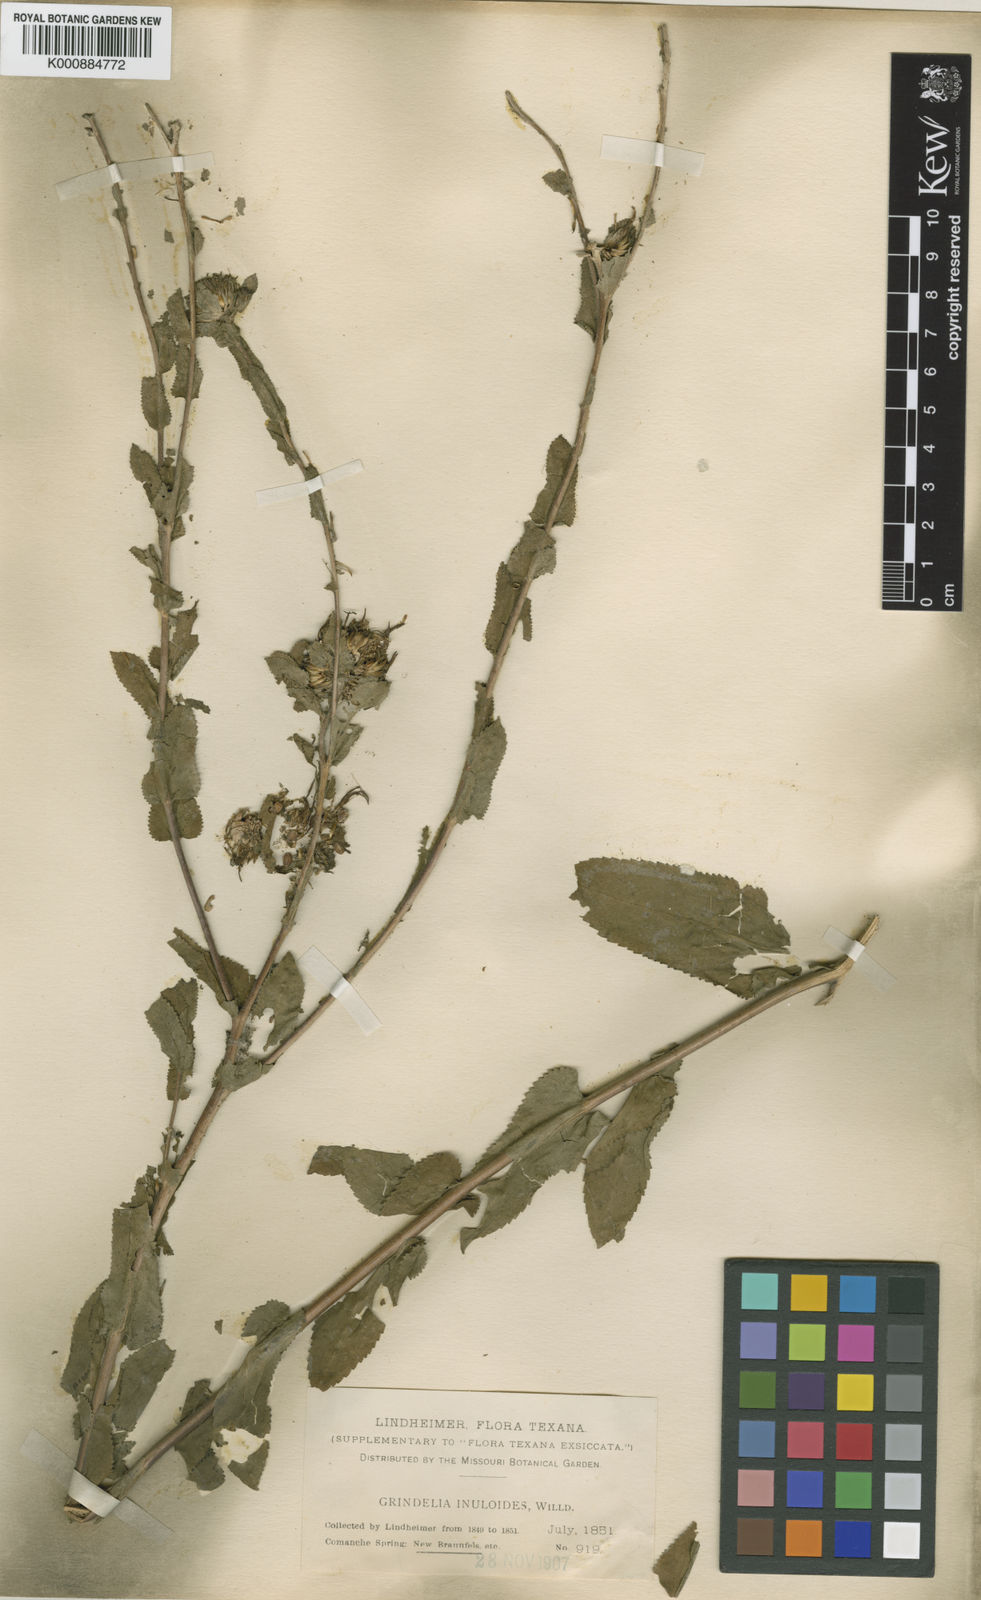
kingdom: Plantae
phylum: Tracheophyta
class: Magnoliopsida
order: Asterales
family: Asteraceae
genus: Grindelia
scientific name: Grindelia adenodonta
